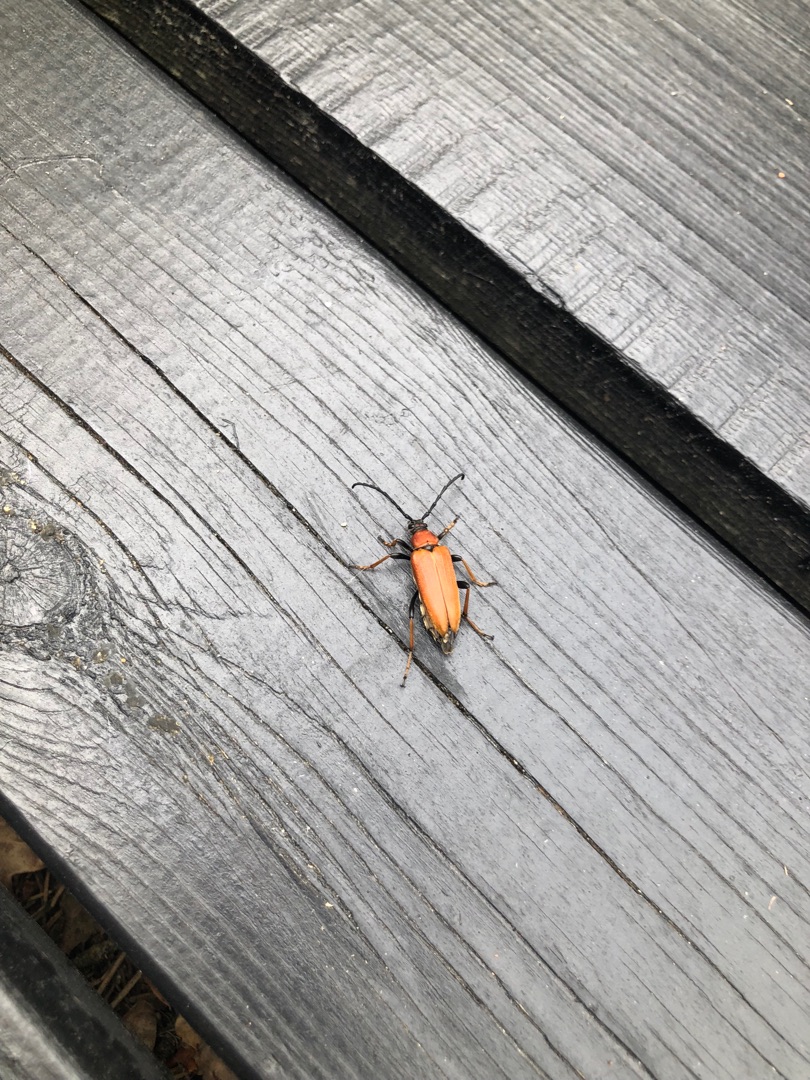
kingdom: Animalia
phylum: Arthropoda
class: Insecta
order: Coleoptera
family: Cerambycidae
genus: Stictoleptura
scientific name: Stictoleptura rubra
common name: Rød blomsterbuk
